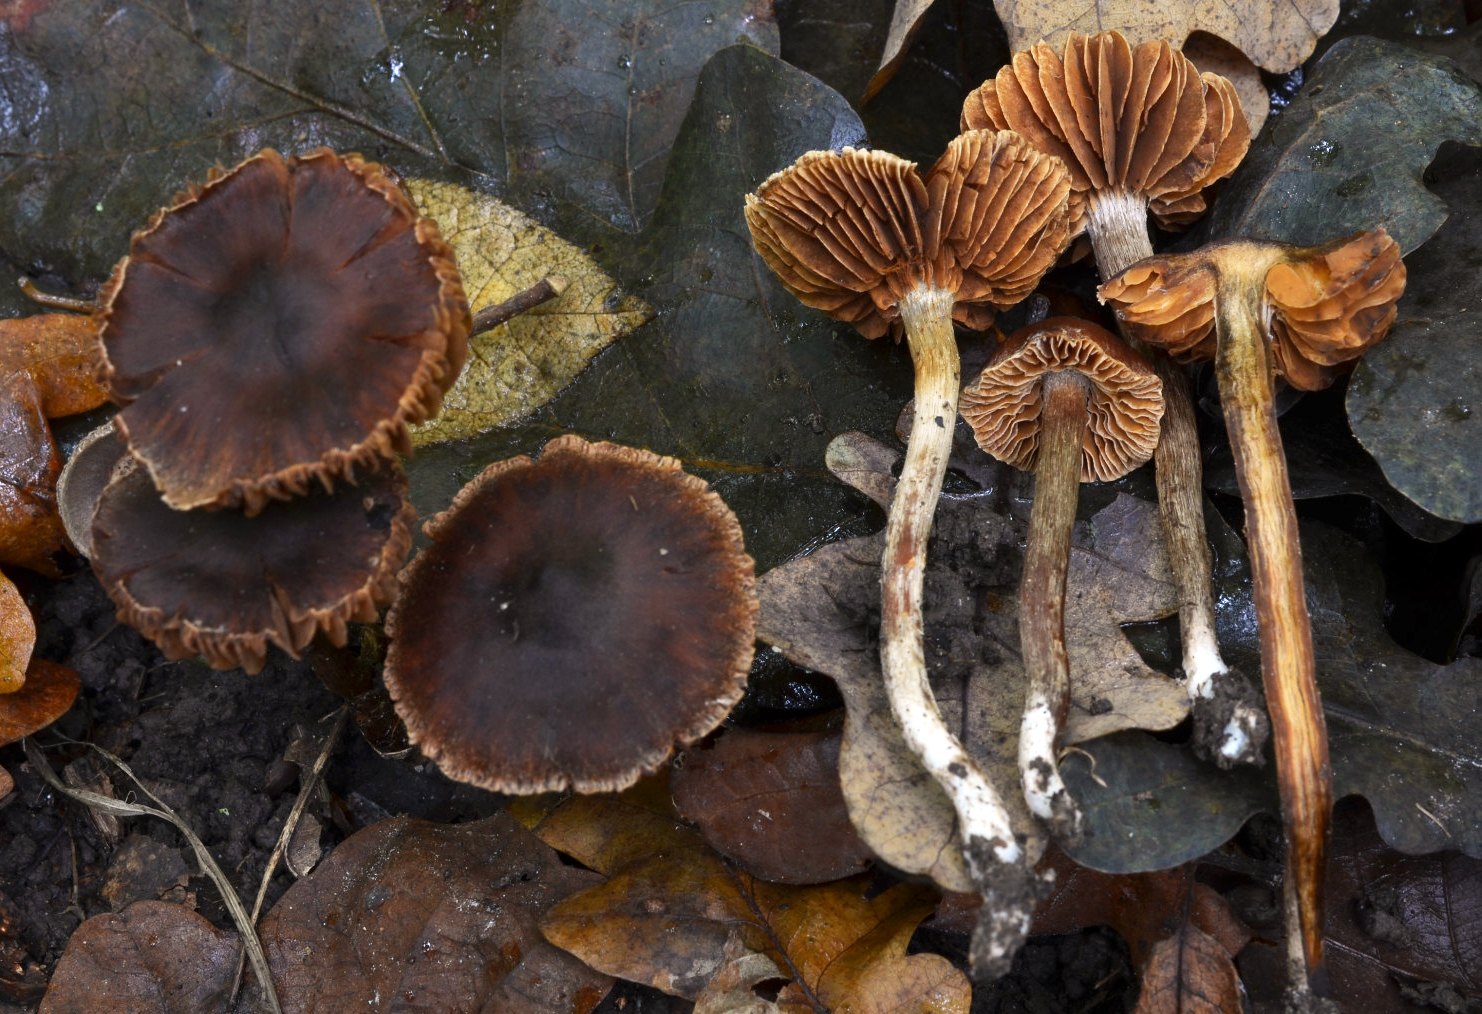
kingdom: Fungi
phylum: Basidiomycota
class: Agaricomycetes
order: Agaricales
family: Cortinariaceae
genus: Cortinarius
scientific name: Cortinarius fuscogracilescens
